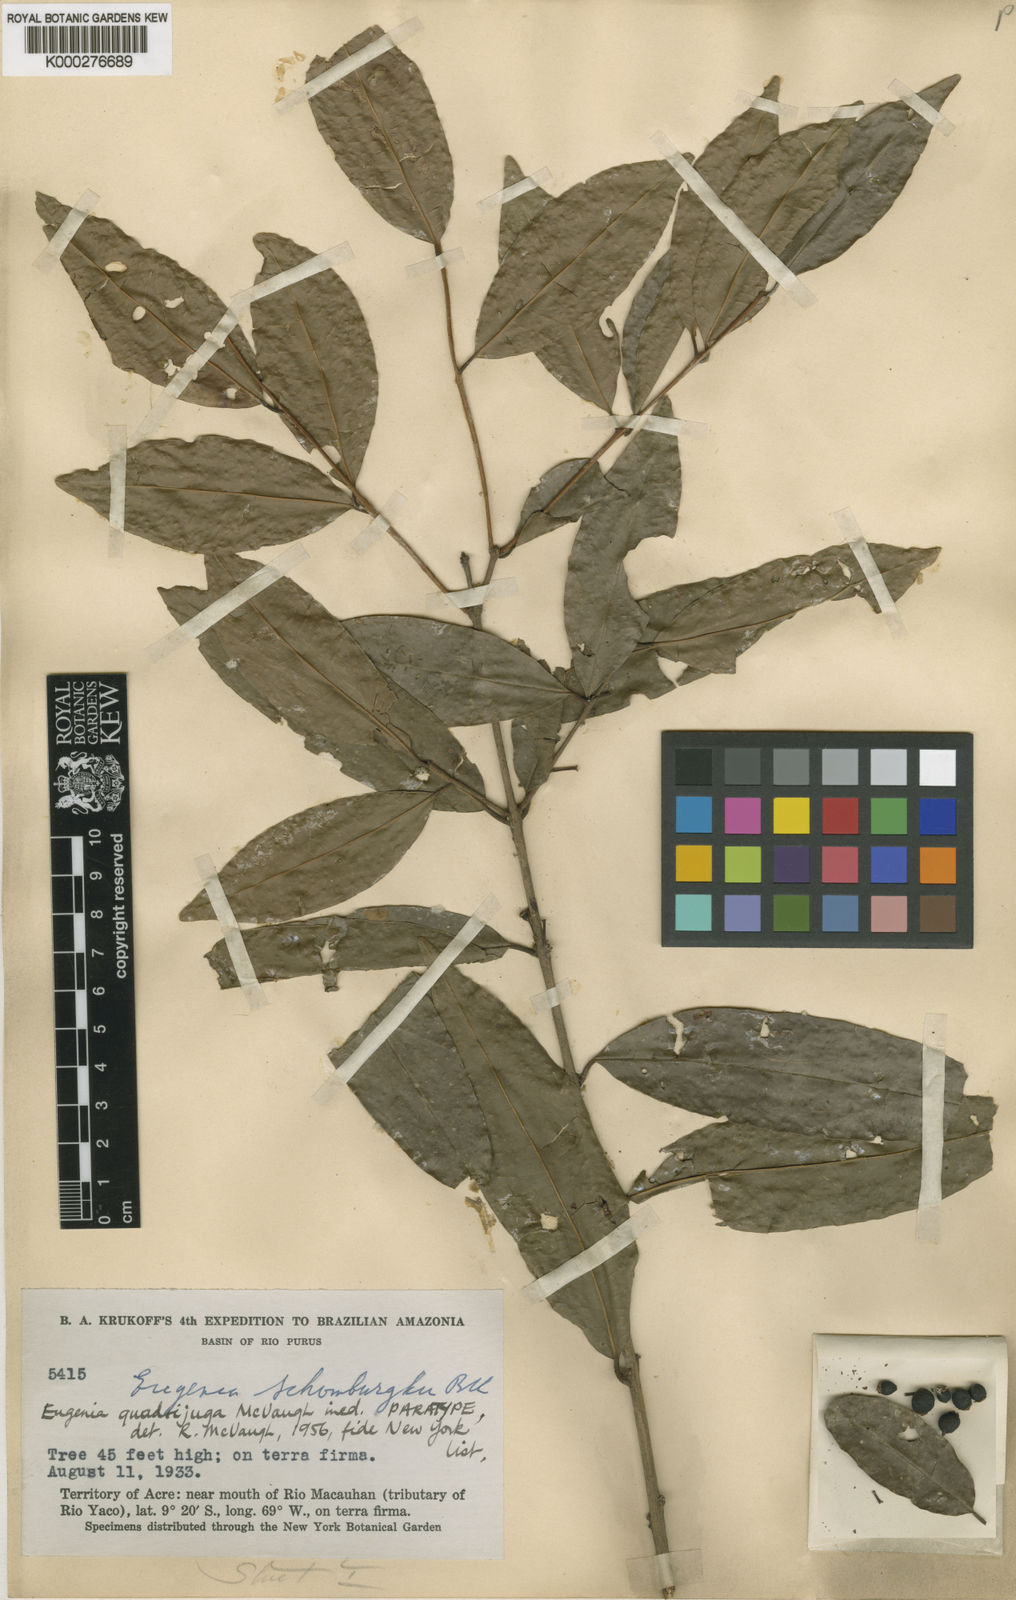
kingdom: Plantae
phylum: Tracheophyta
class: Magnoliopsida
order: Myrtales
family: Myrtaceae
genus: Eugenia
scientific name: Eugenia quadrijuga
